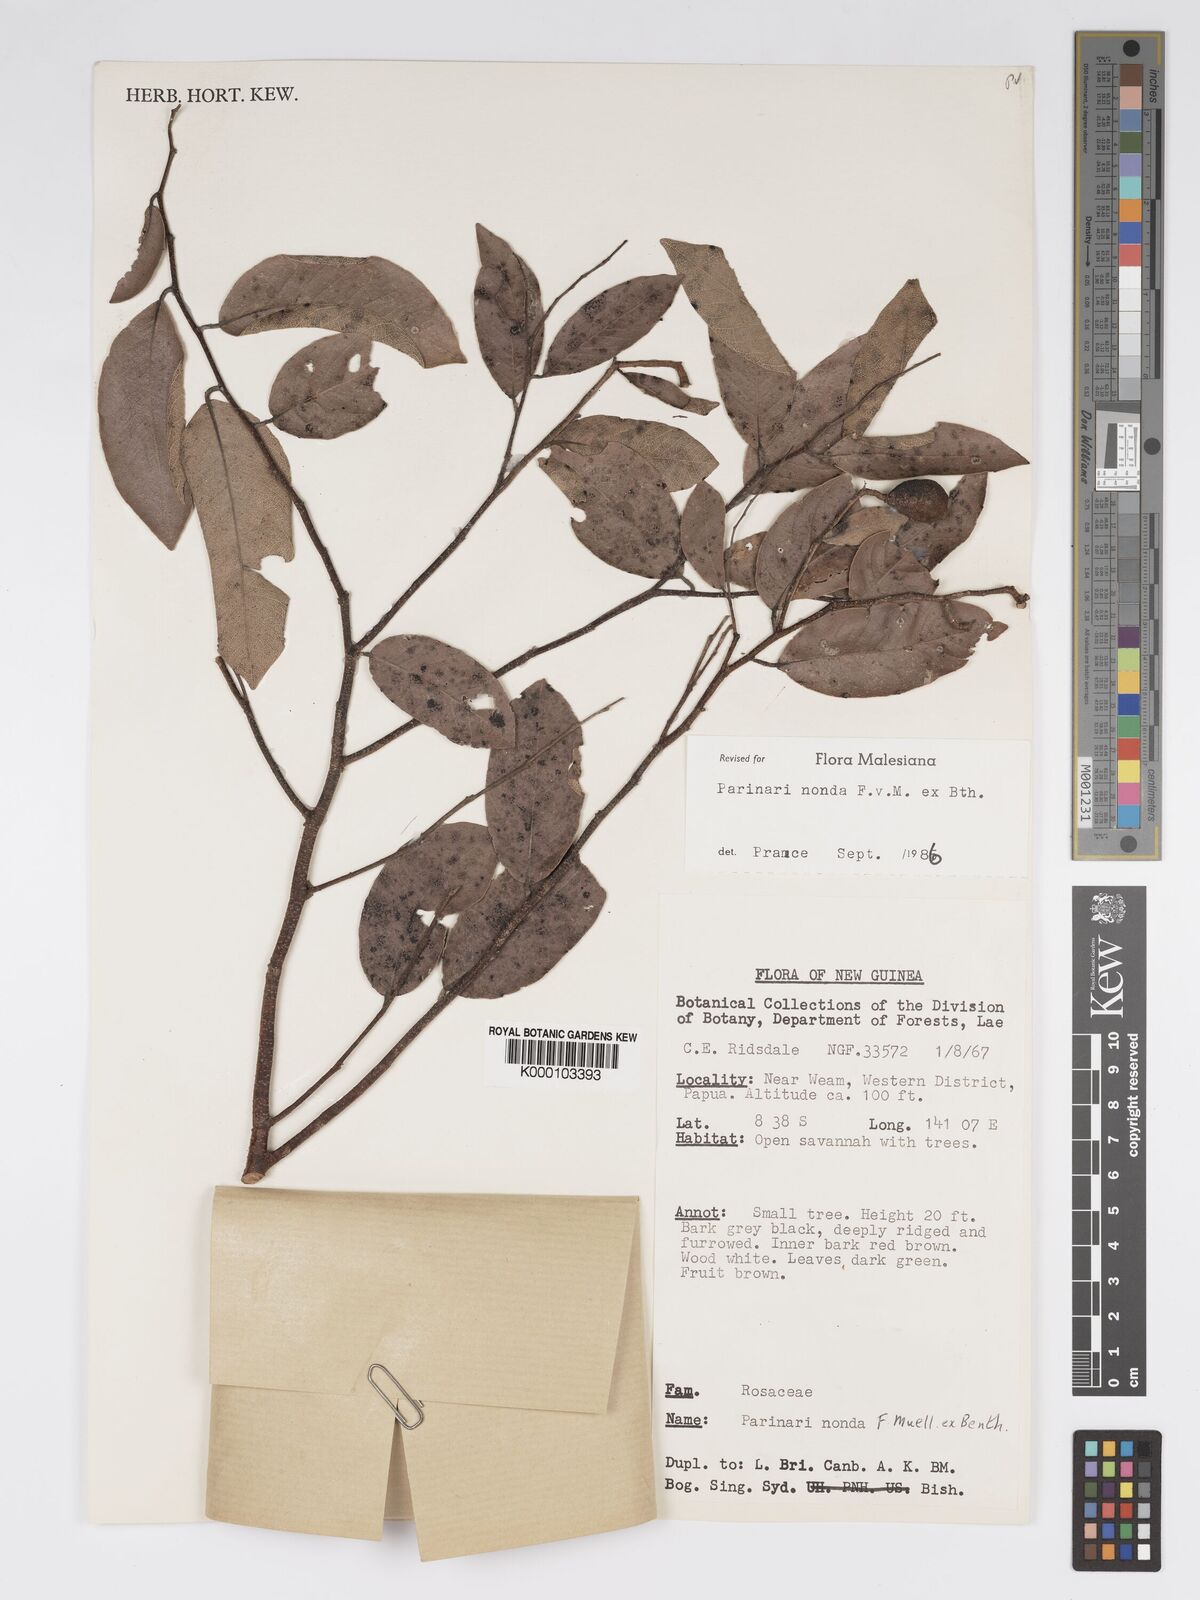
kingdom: Plantae
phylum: Tracheophyta
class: Magnoliopsida
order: Malpighiales
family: Chrysobalanaceae
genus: Parinari
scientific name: Parinari nonda
